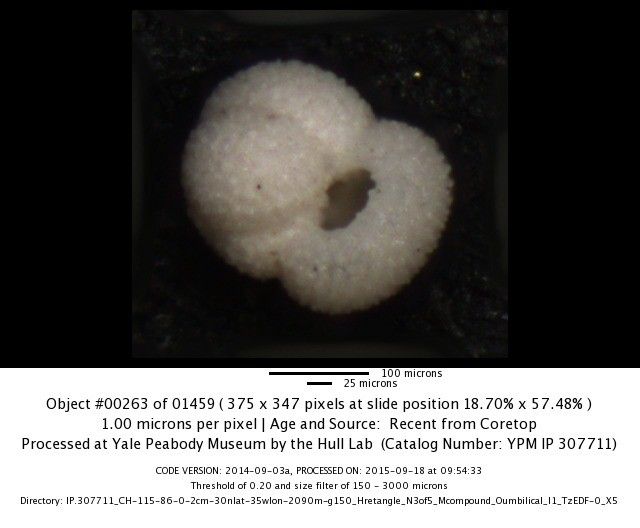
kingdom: Chromista
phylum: Foraminifera
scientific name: Foraminifera
